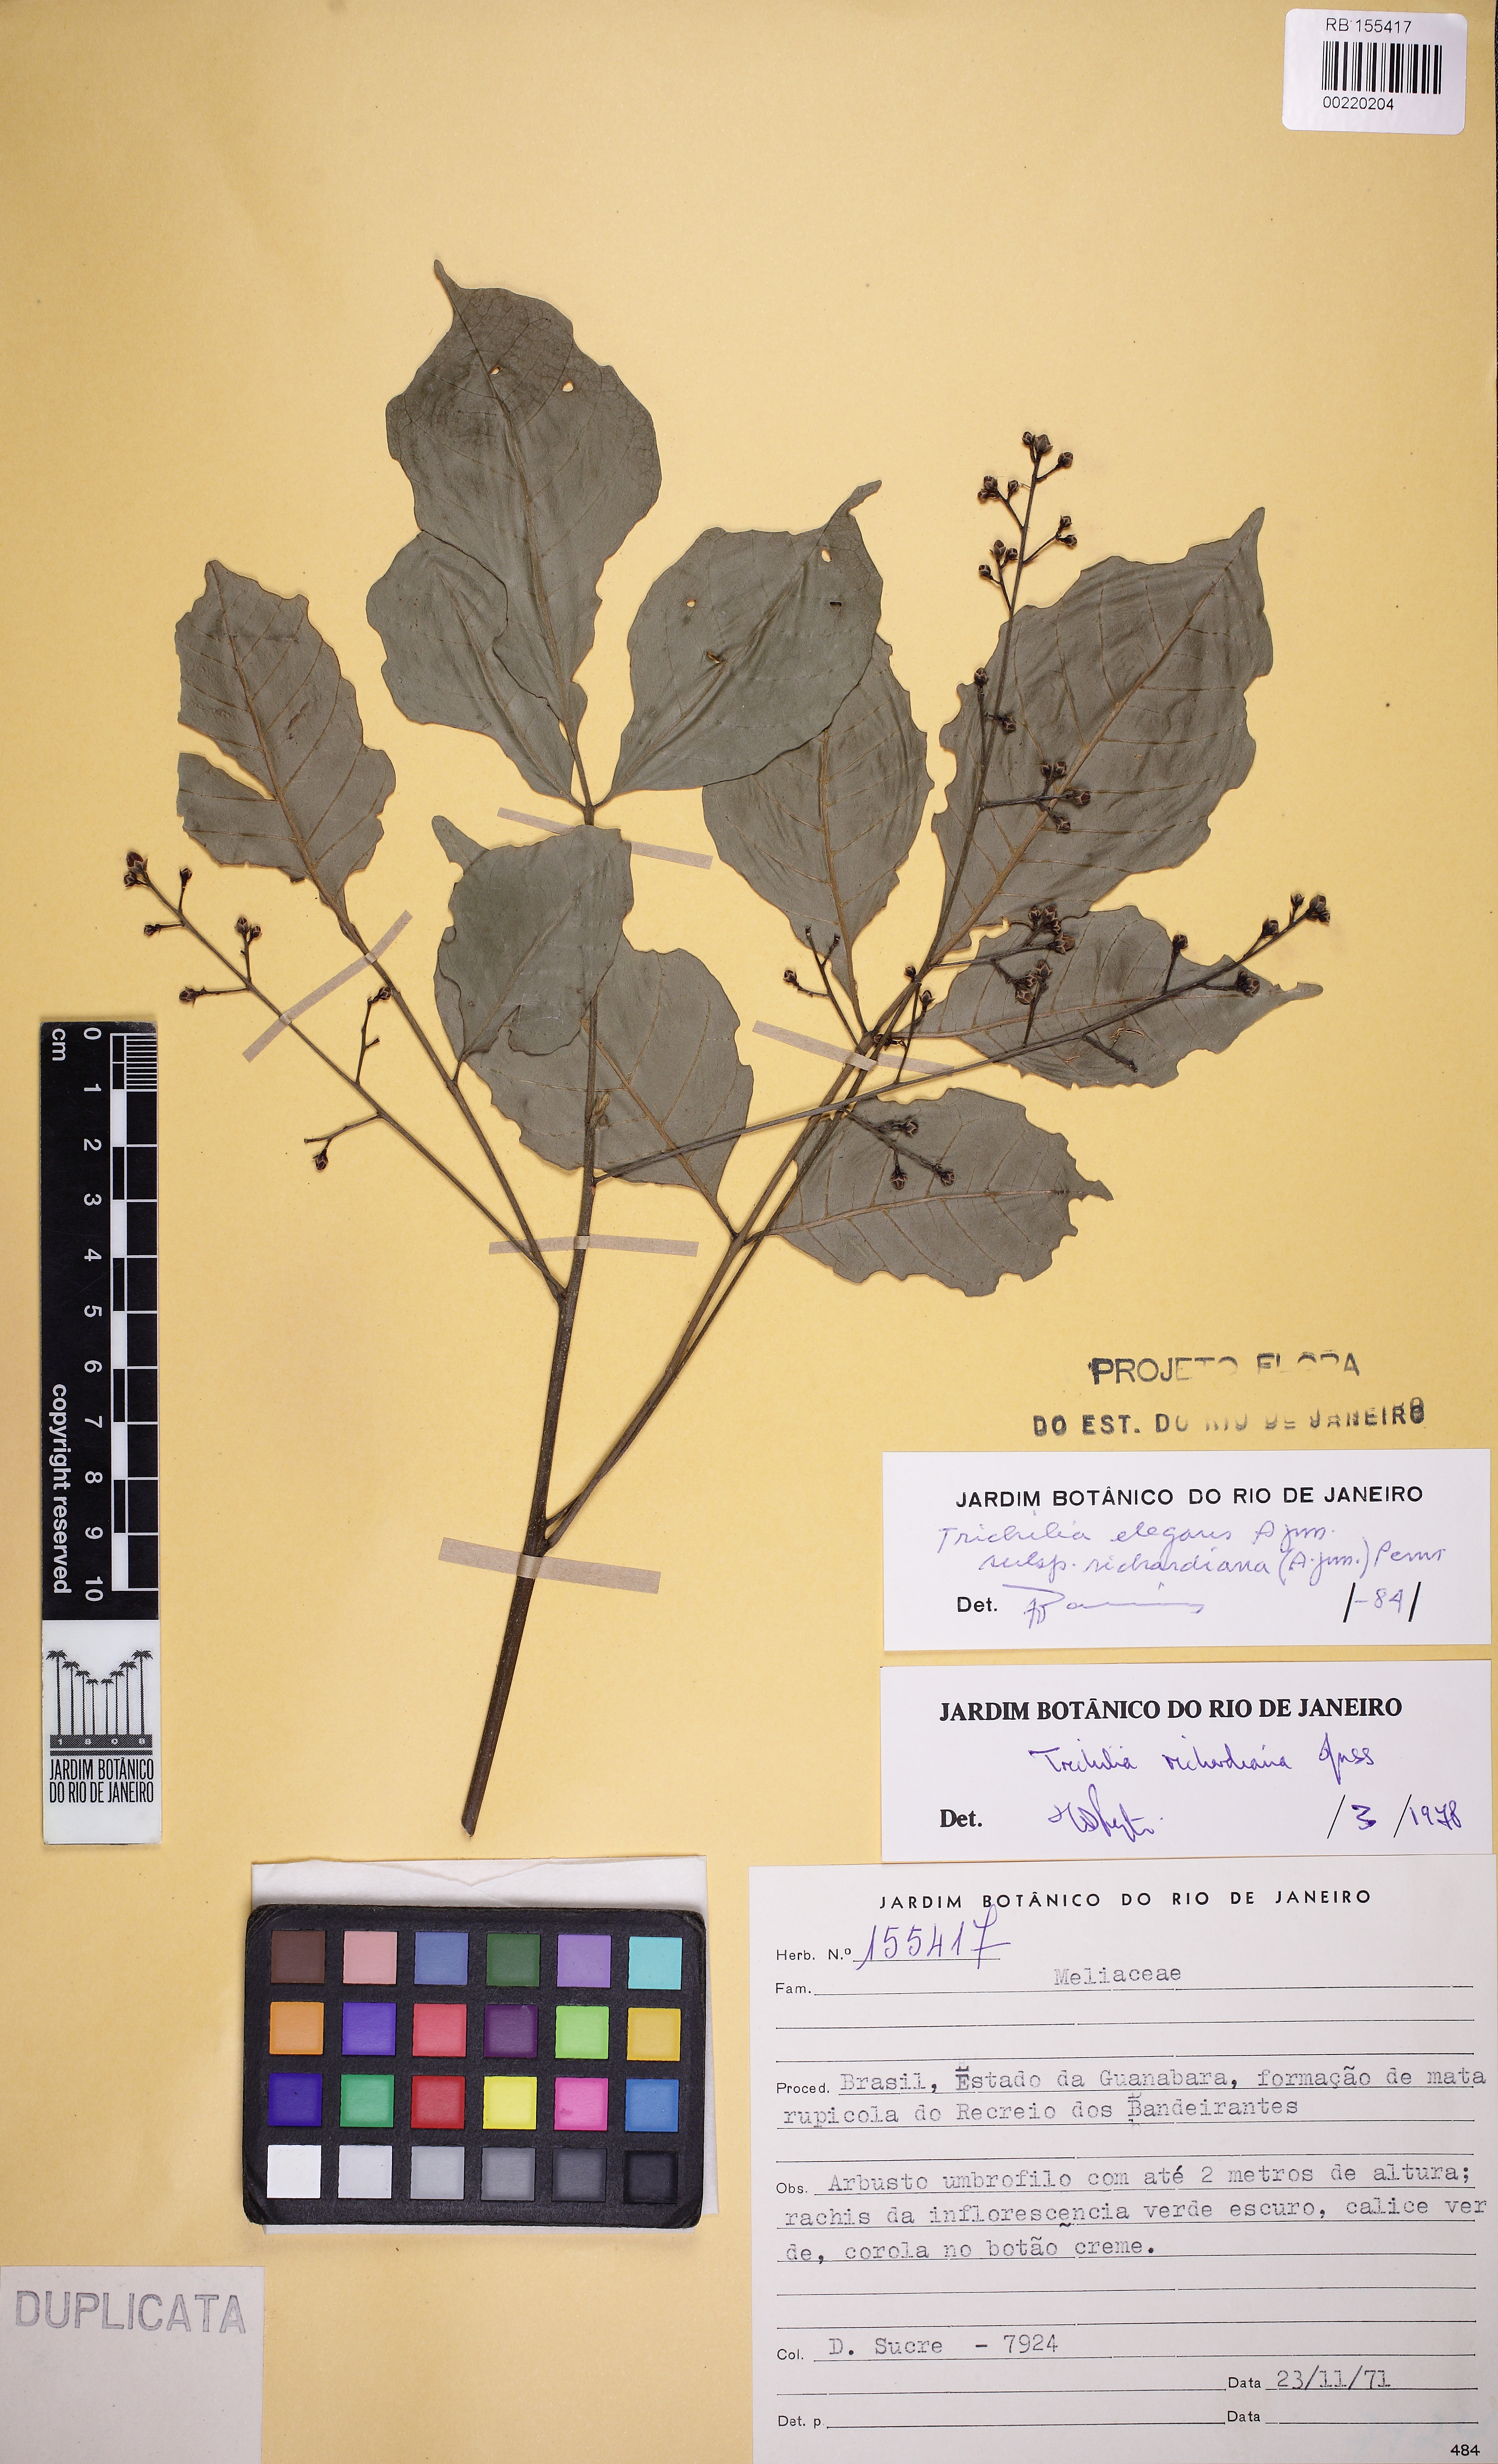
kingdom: Plantae
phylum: Tracheophyta
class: Magnoliopsida
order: Sapindales
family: Meliaceae
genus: Trichilia
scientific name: Trichilia elegans
